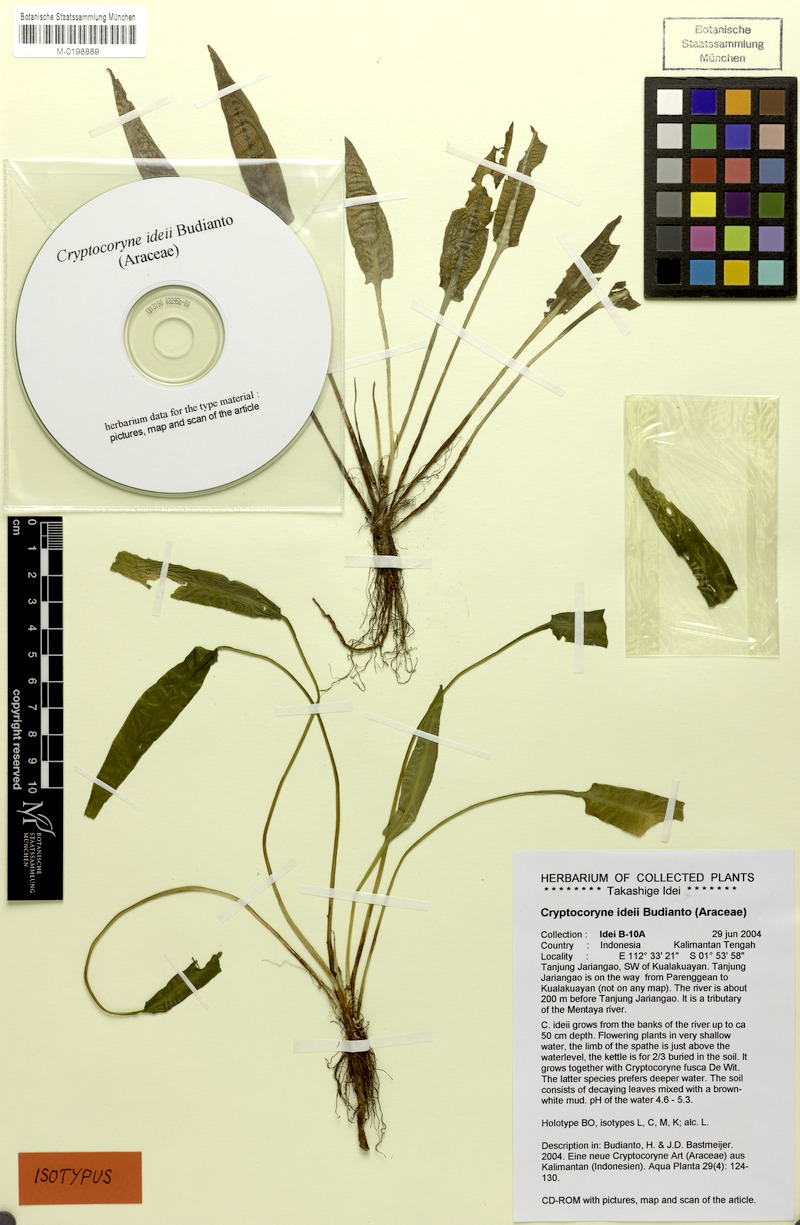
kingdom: Plantae
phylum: Tracheophyta
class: Liliopsida
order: Alismatales
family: Araceae
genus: Cryptocoryne
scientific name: Cryptocoryne ideii
